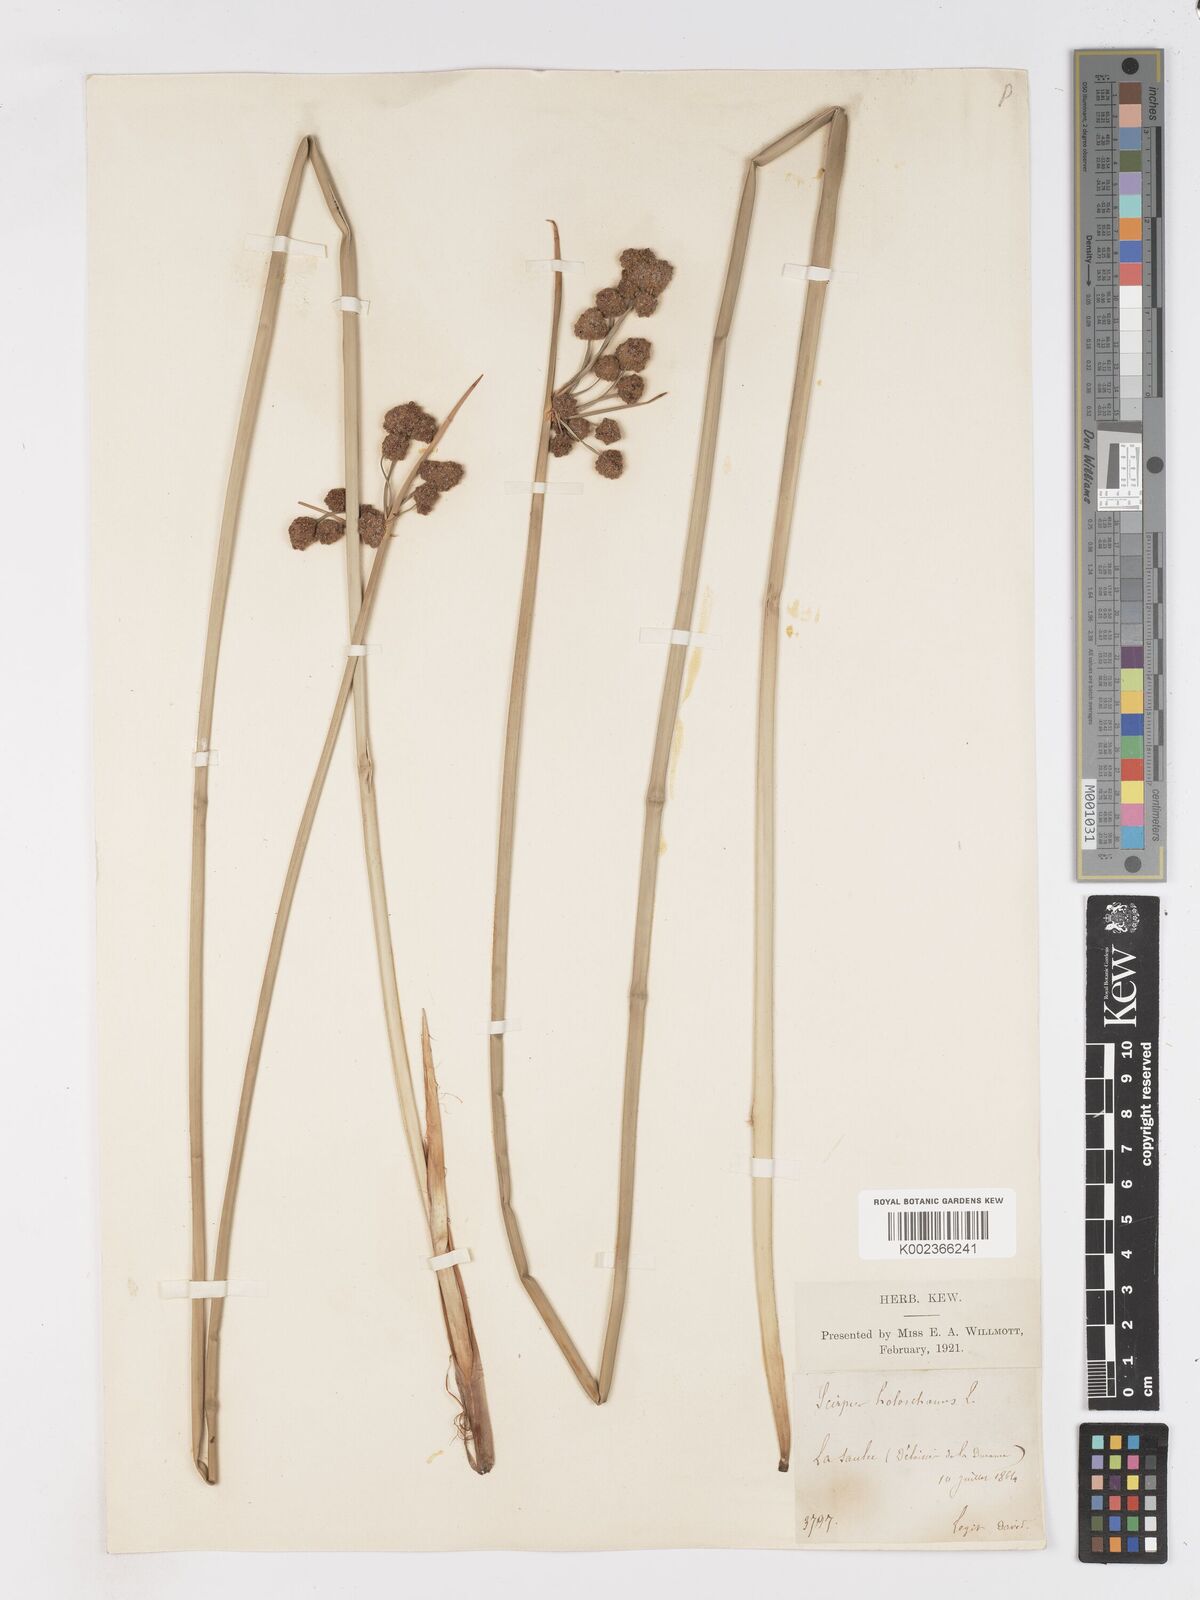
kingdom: Plantae
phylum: Tracheophyta
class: Liliopsida
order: Poales
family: Cyperaceae
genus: Scirpoides
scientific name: Scirpoides holoschoenus
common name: Round-headed club-rush
